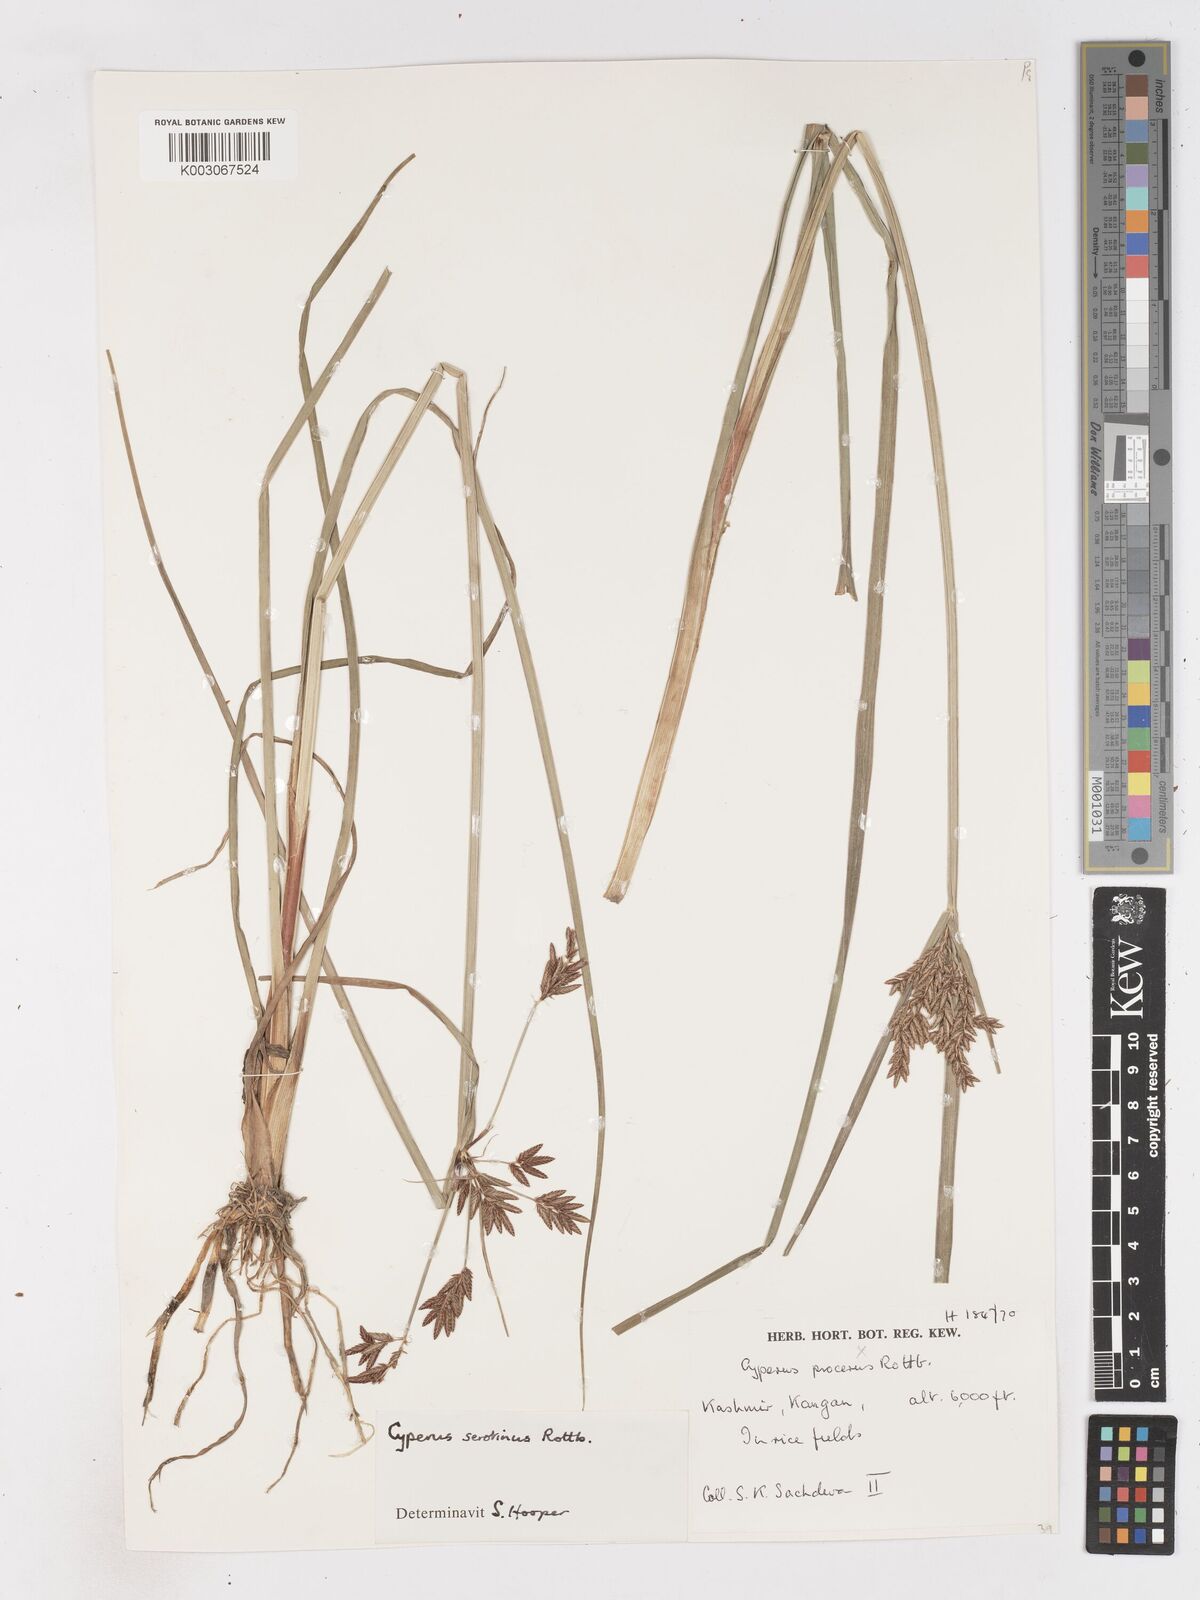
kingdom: Plantae
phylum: Tracheophyta
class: Liliopsida
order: Poales
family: Cyperaceae
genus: Cyperus
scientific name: Cyperus serotinus
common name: Tidalmarsh flatsedge
